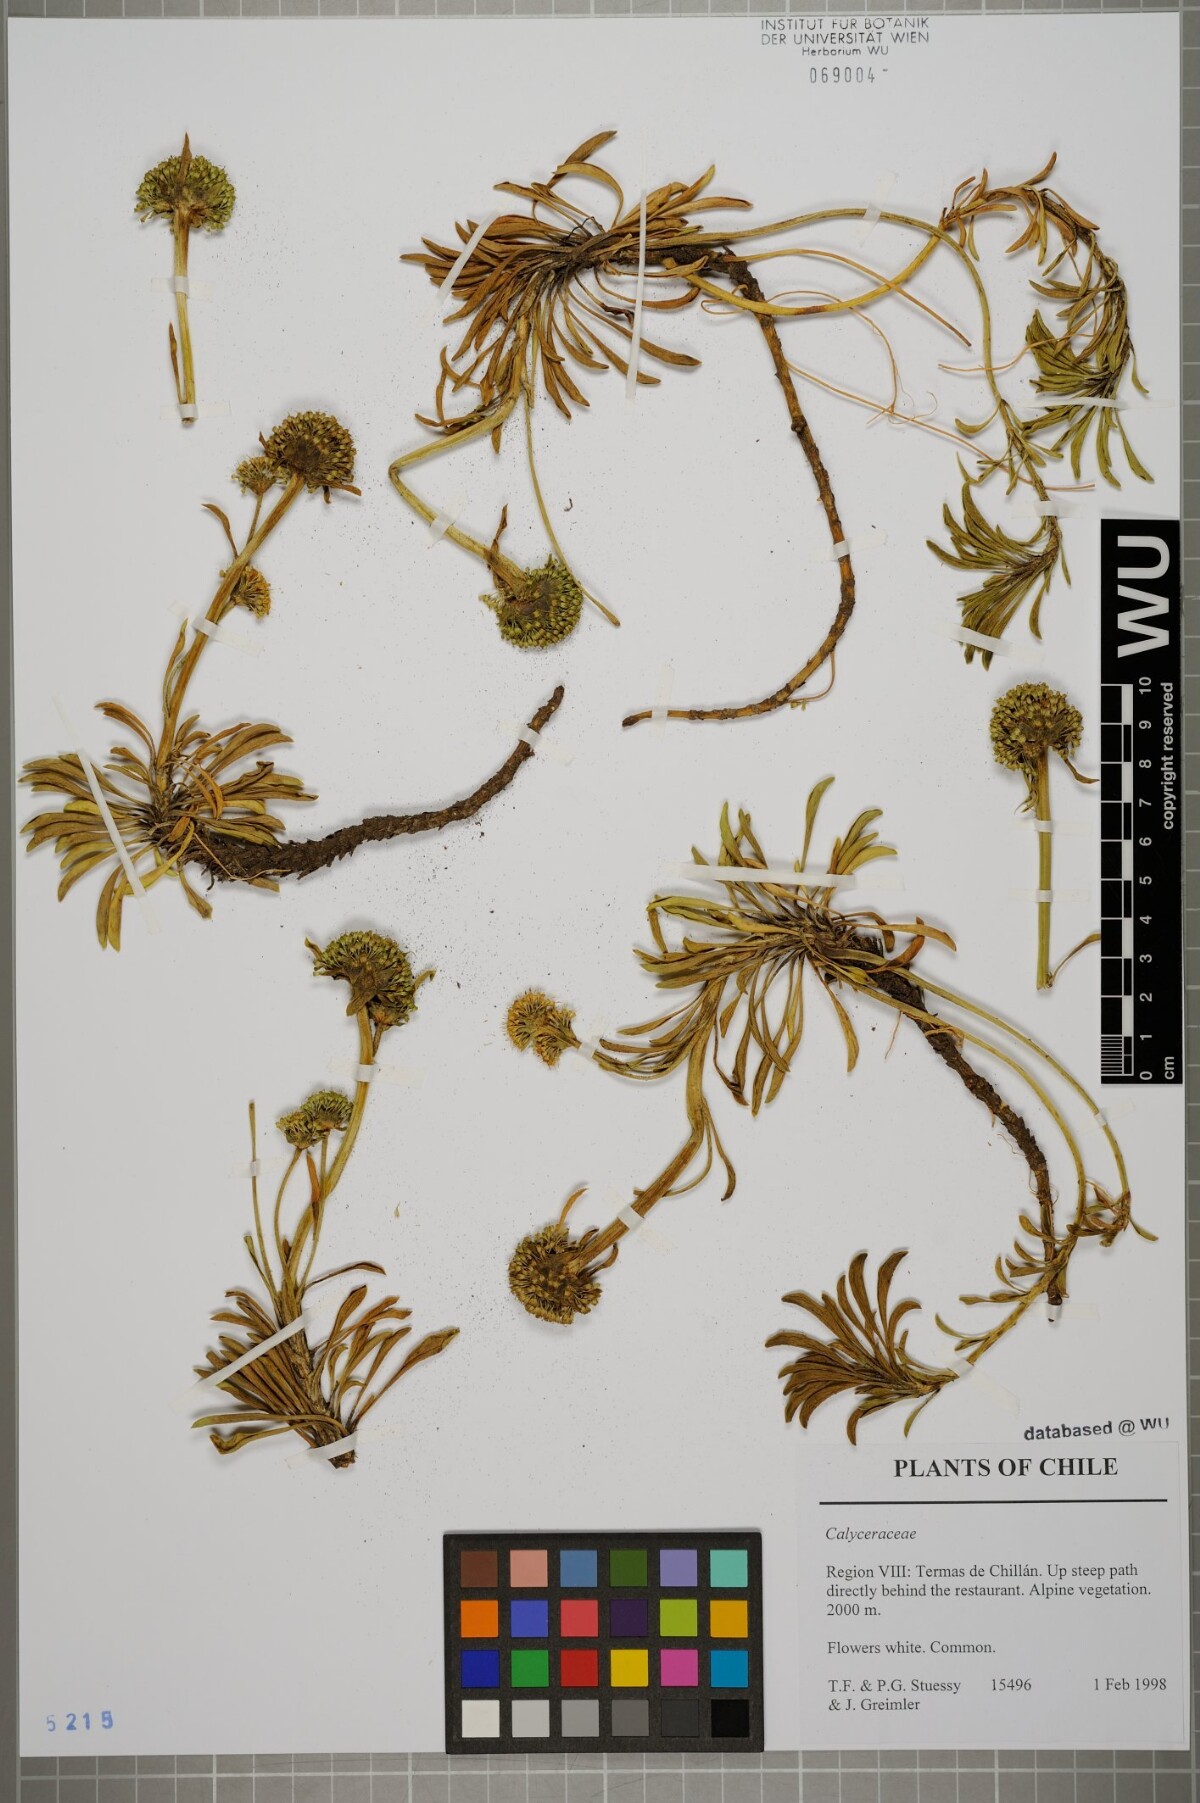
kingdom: Plantae
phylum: Tracheophyta
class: Magnoliopsida
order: Asterales
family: Calyceraceae
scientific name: Calyceraceae
